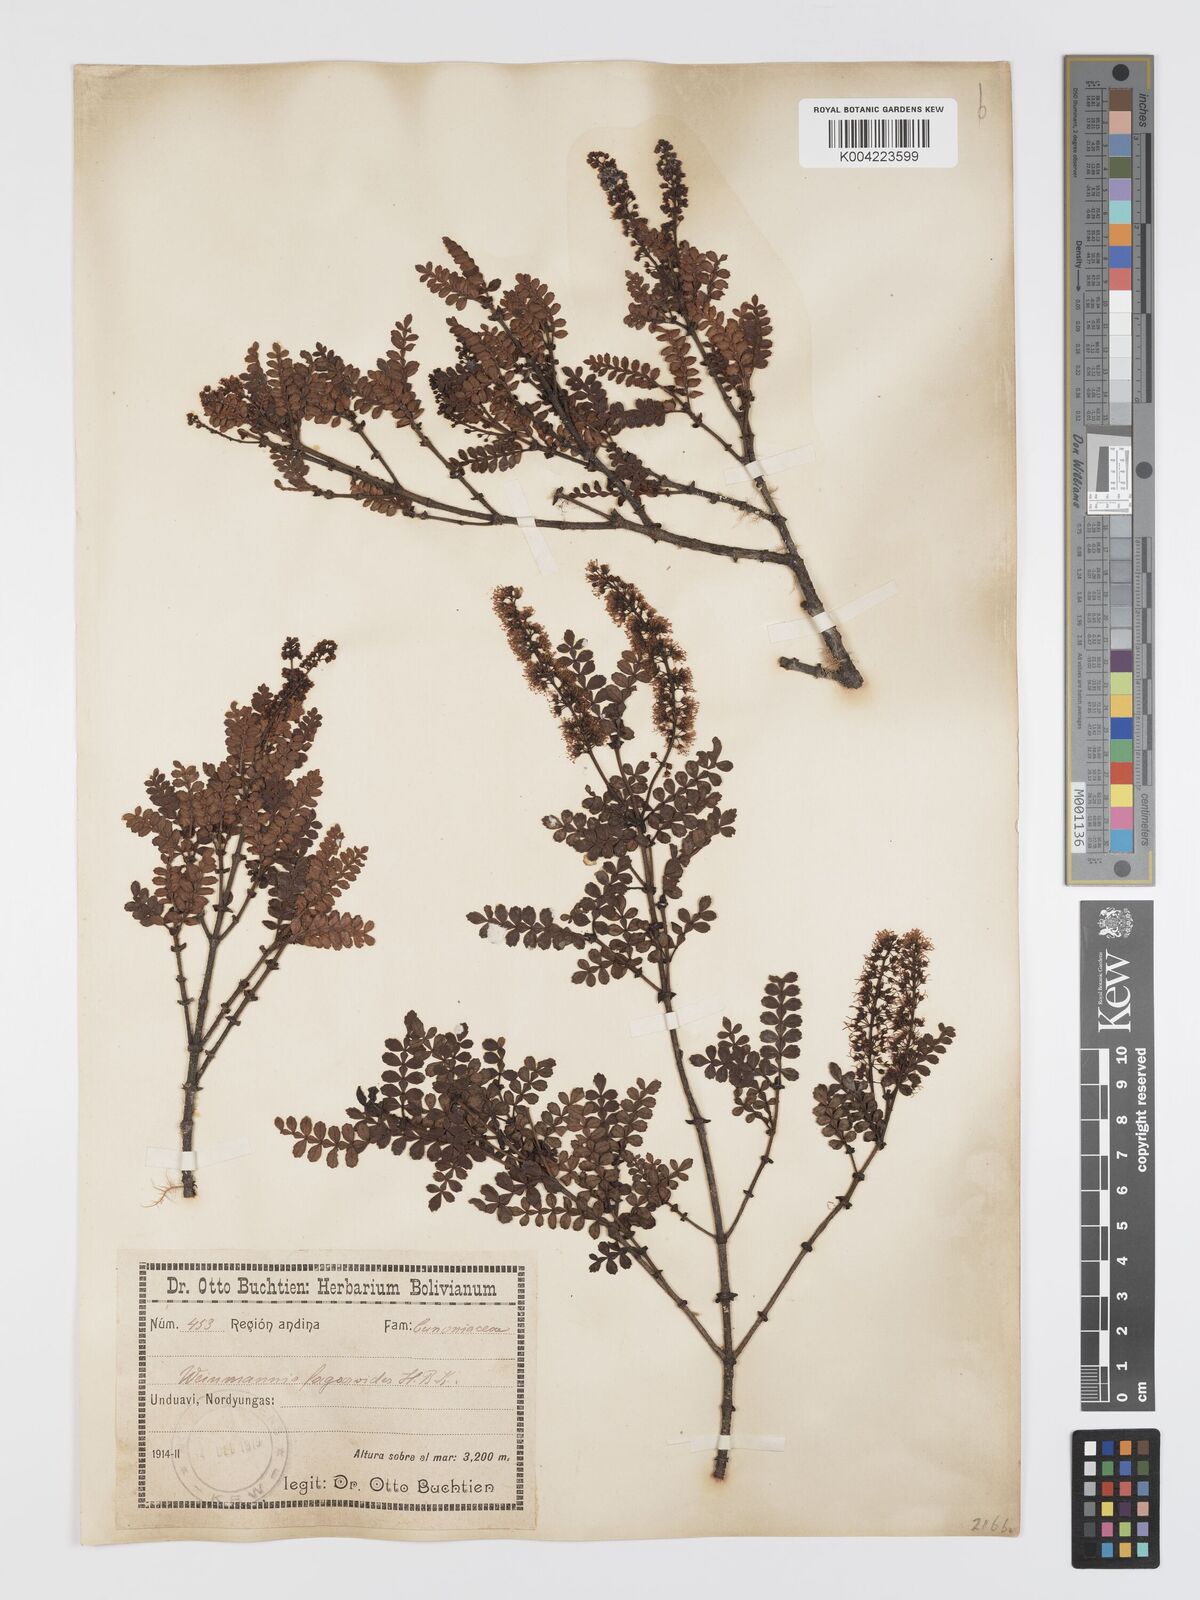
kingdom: Plantae
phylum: Tracheophyta
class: Magnoliopsida
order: Oxalidales
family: Cunoniaceae
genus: Weinmannia
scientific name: Weinmannia fagaroides
